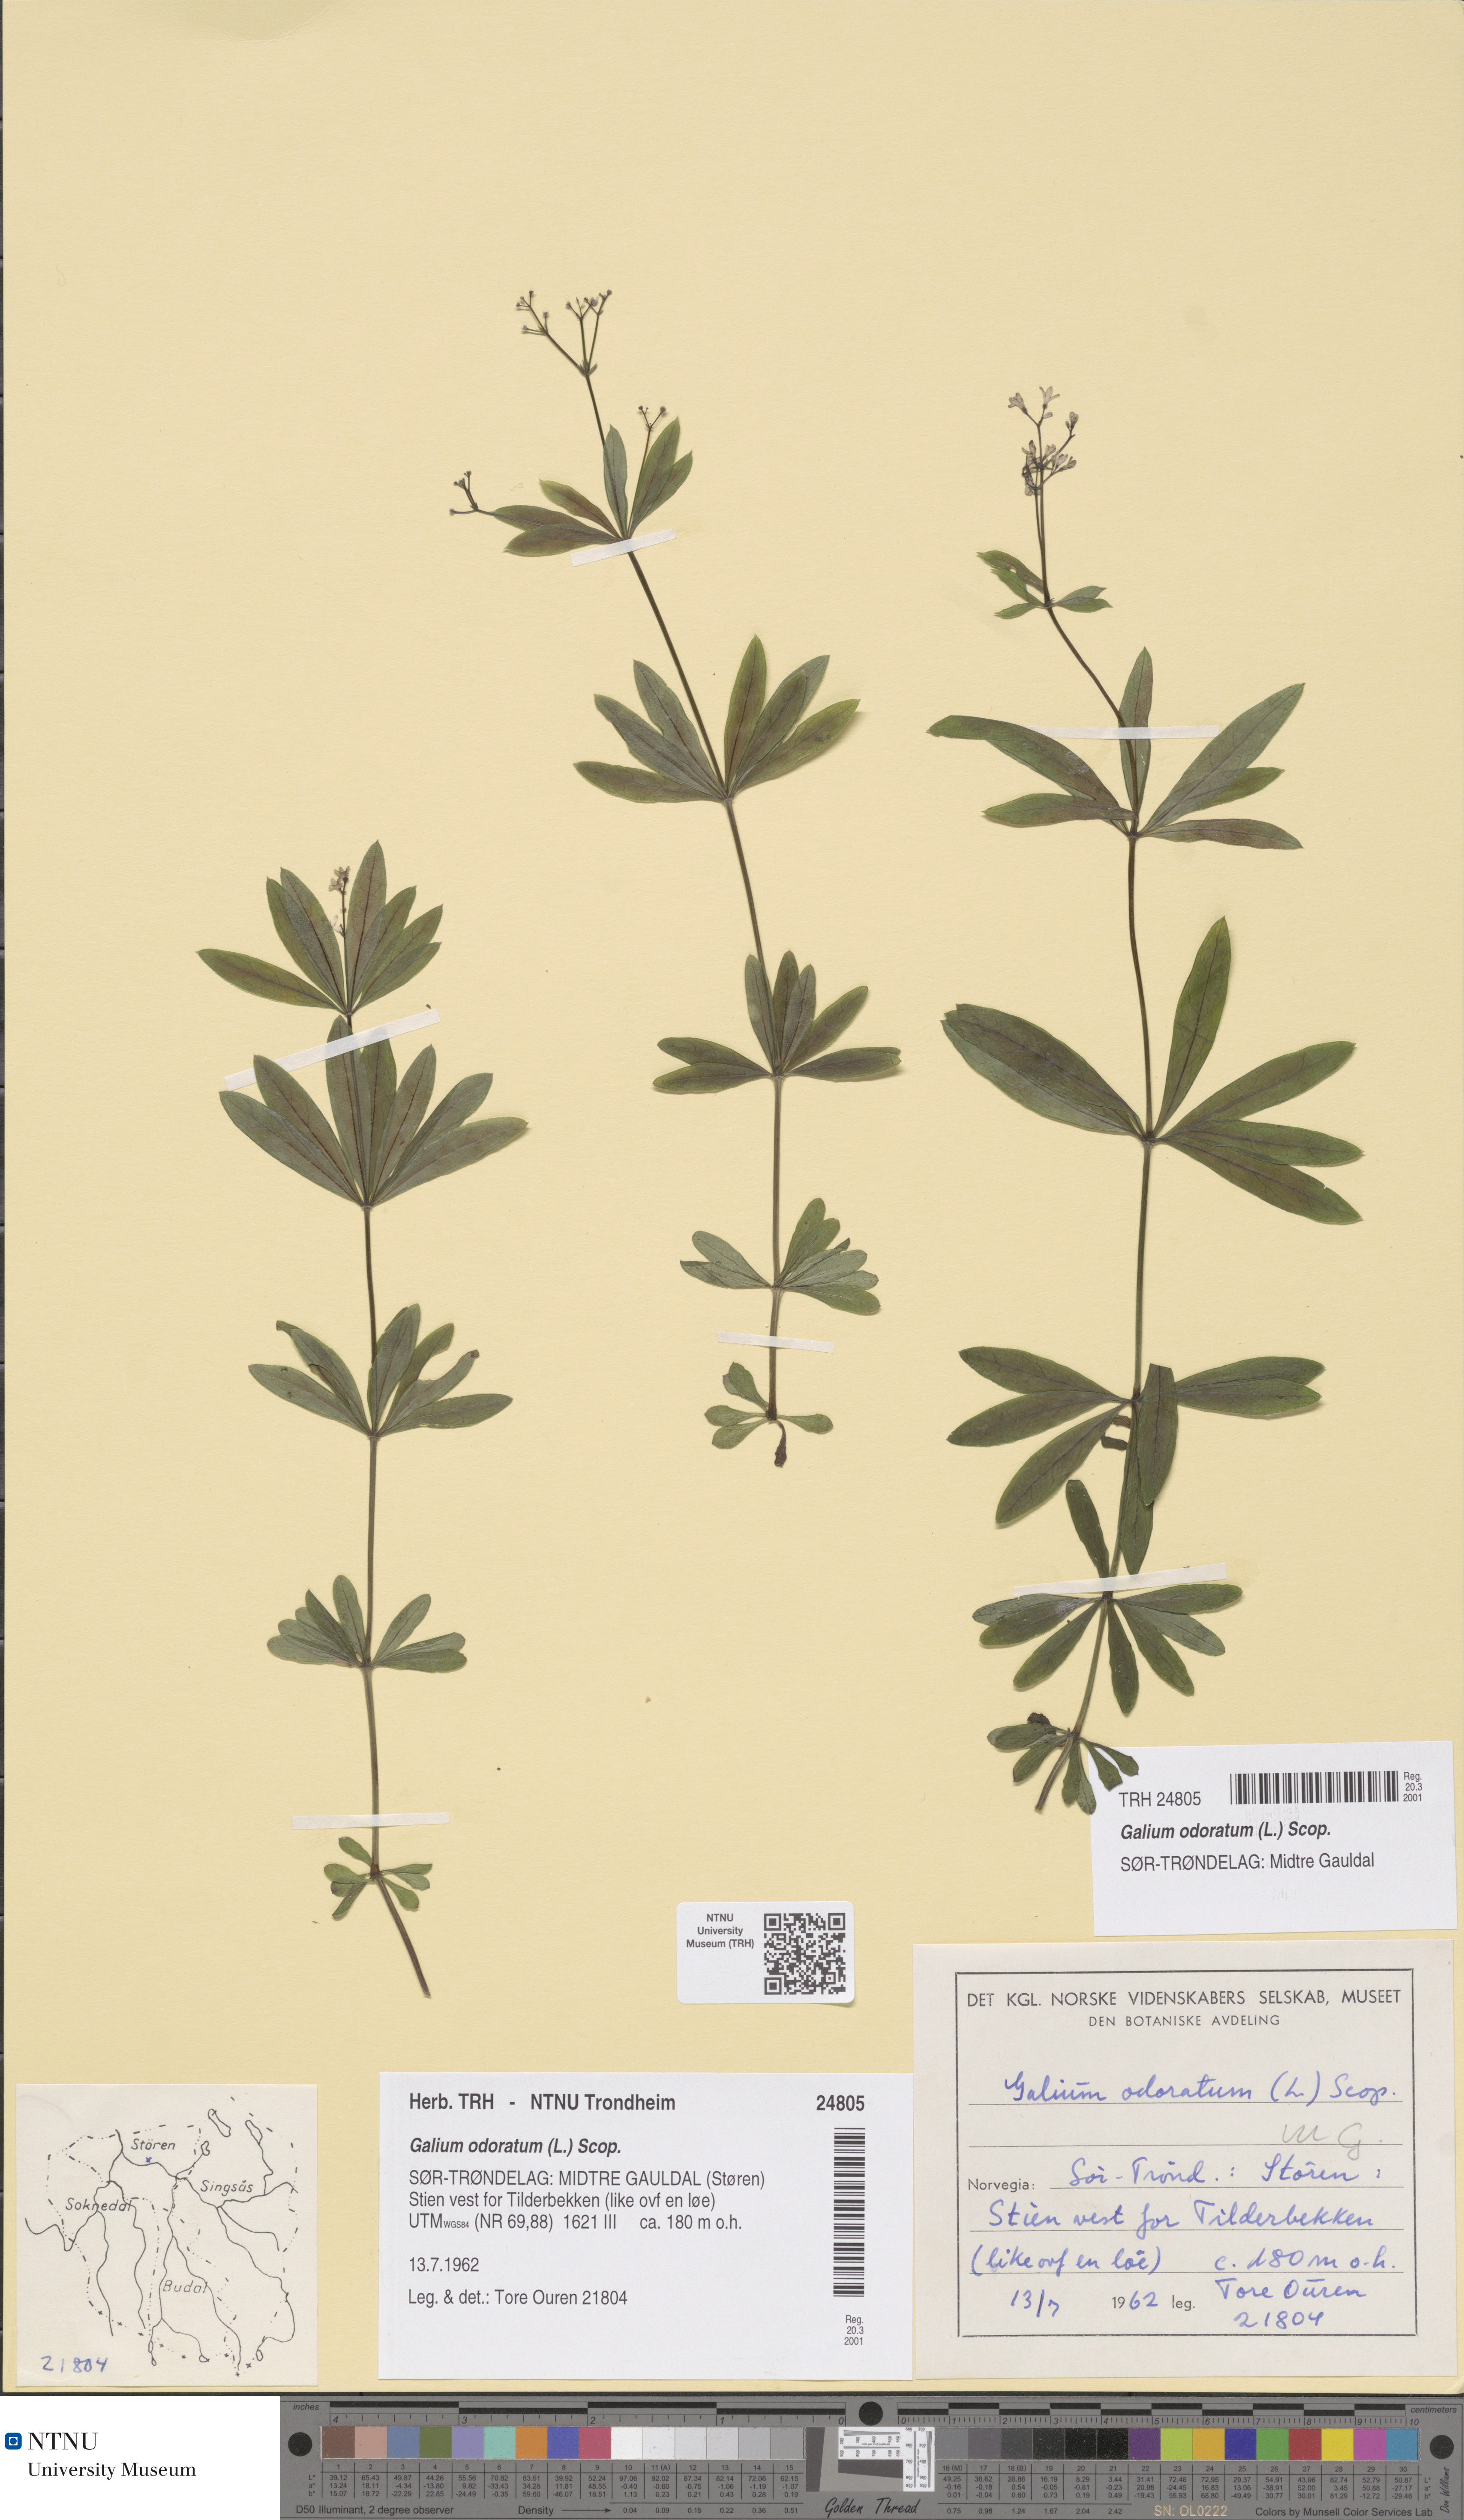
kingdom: Plantae
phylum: Tracheophyta
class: Magnoliopsida
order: Gentianales
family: Rubiaceae
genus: Galium
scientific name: Galium odoratum
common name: Sweet woodruff
